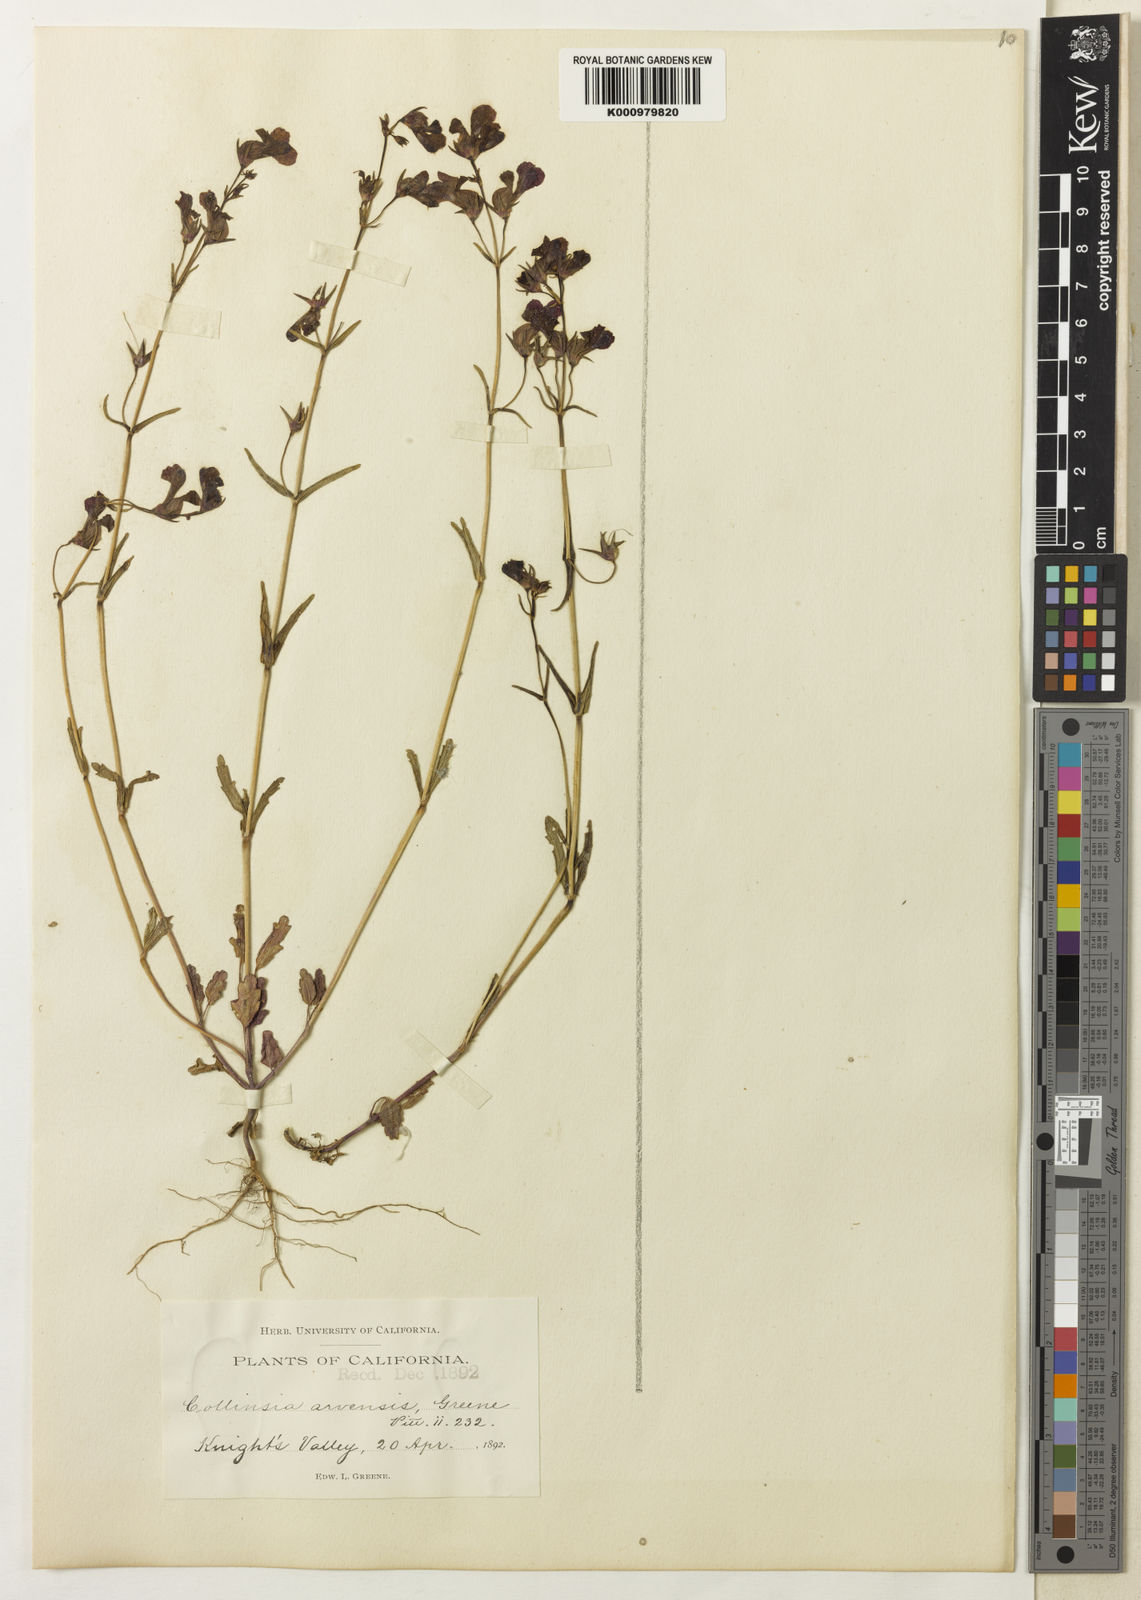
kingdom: Plantae
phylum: Tracheophyta
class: Magnoliopsida
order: Lamiales
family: Plantaginaceae
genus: Collinsia
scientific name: Collinsia sparsiflora
